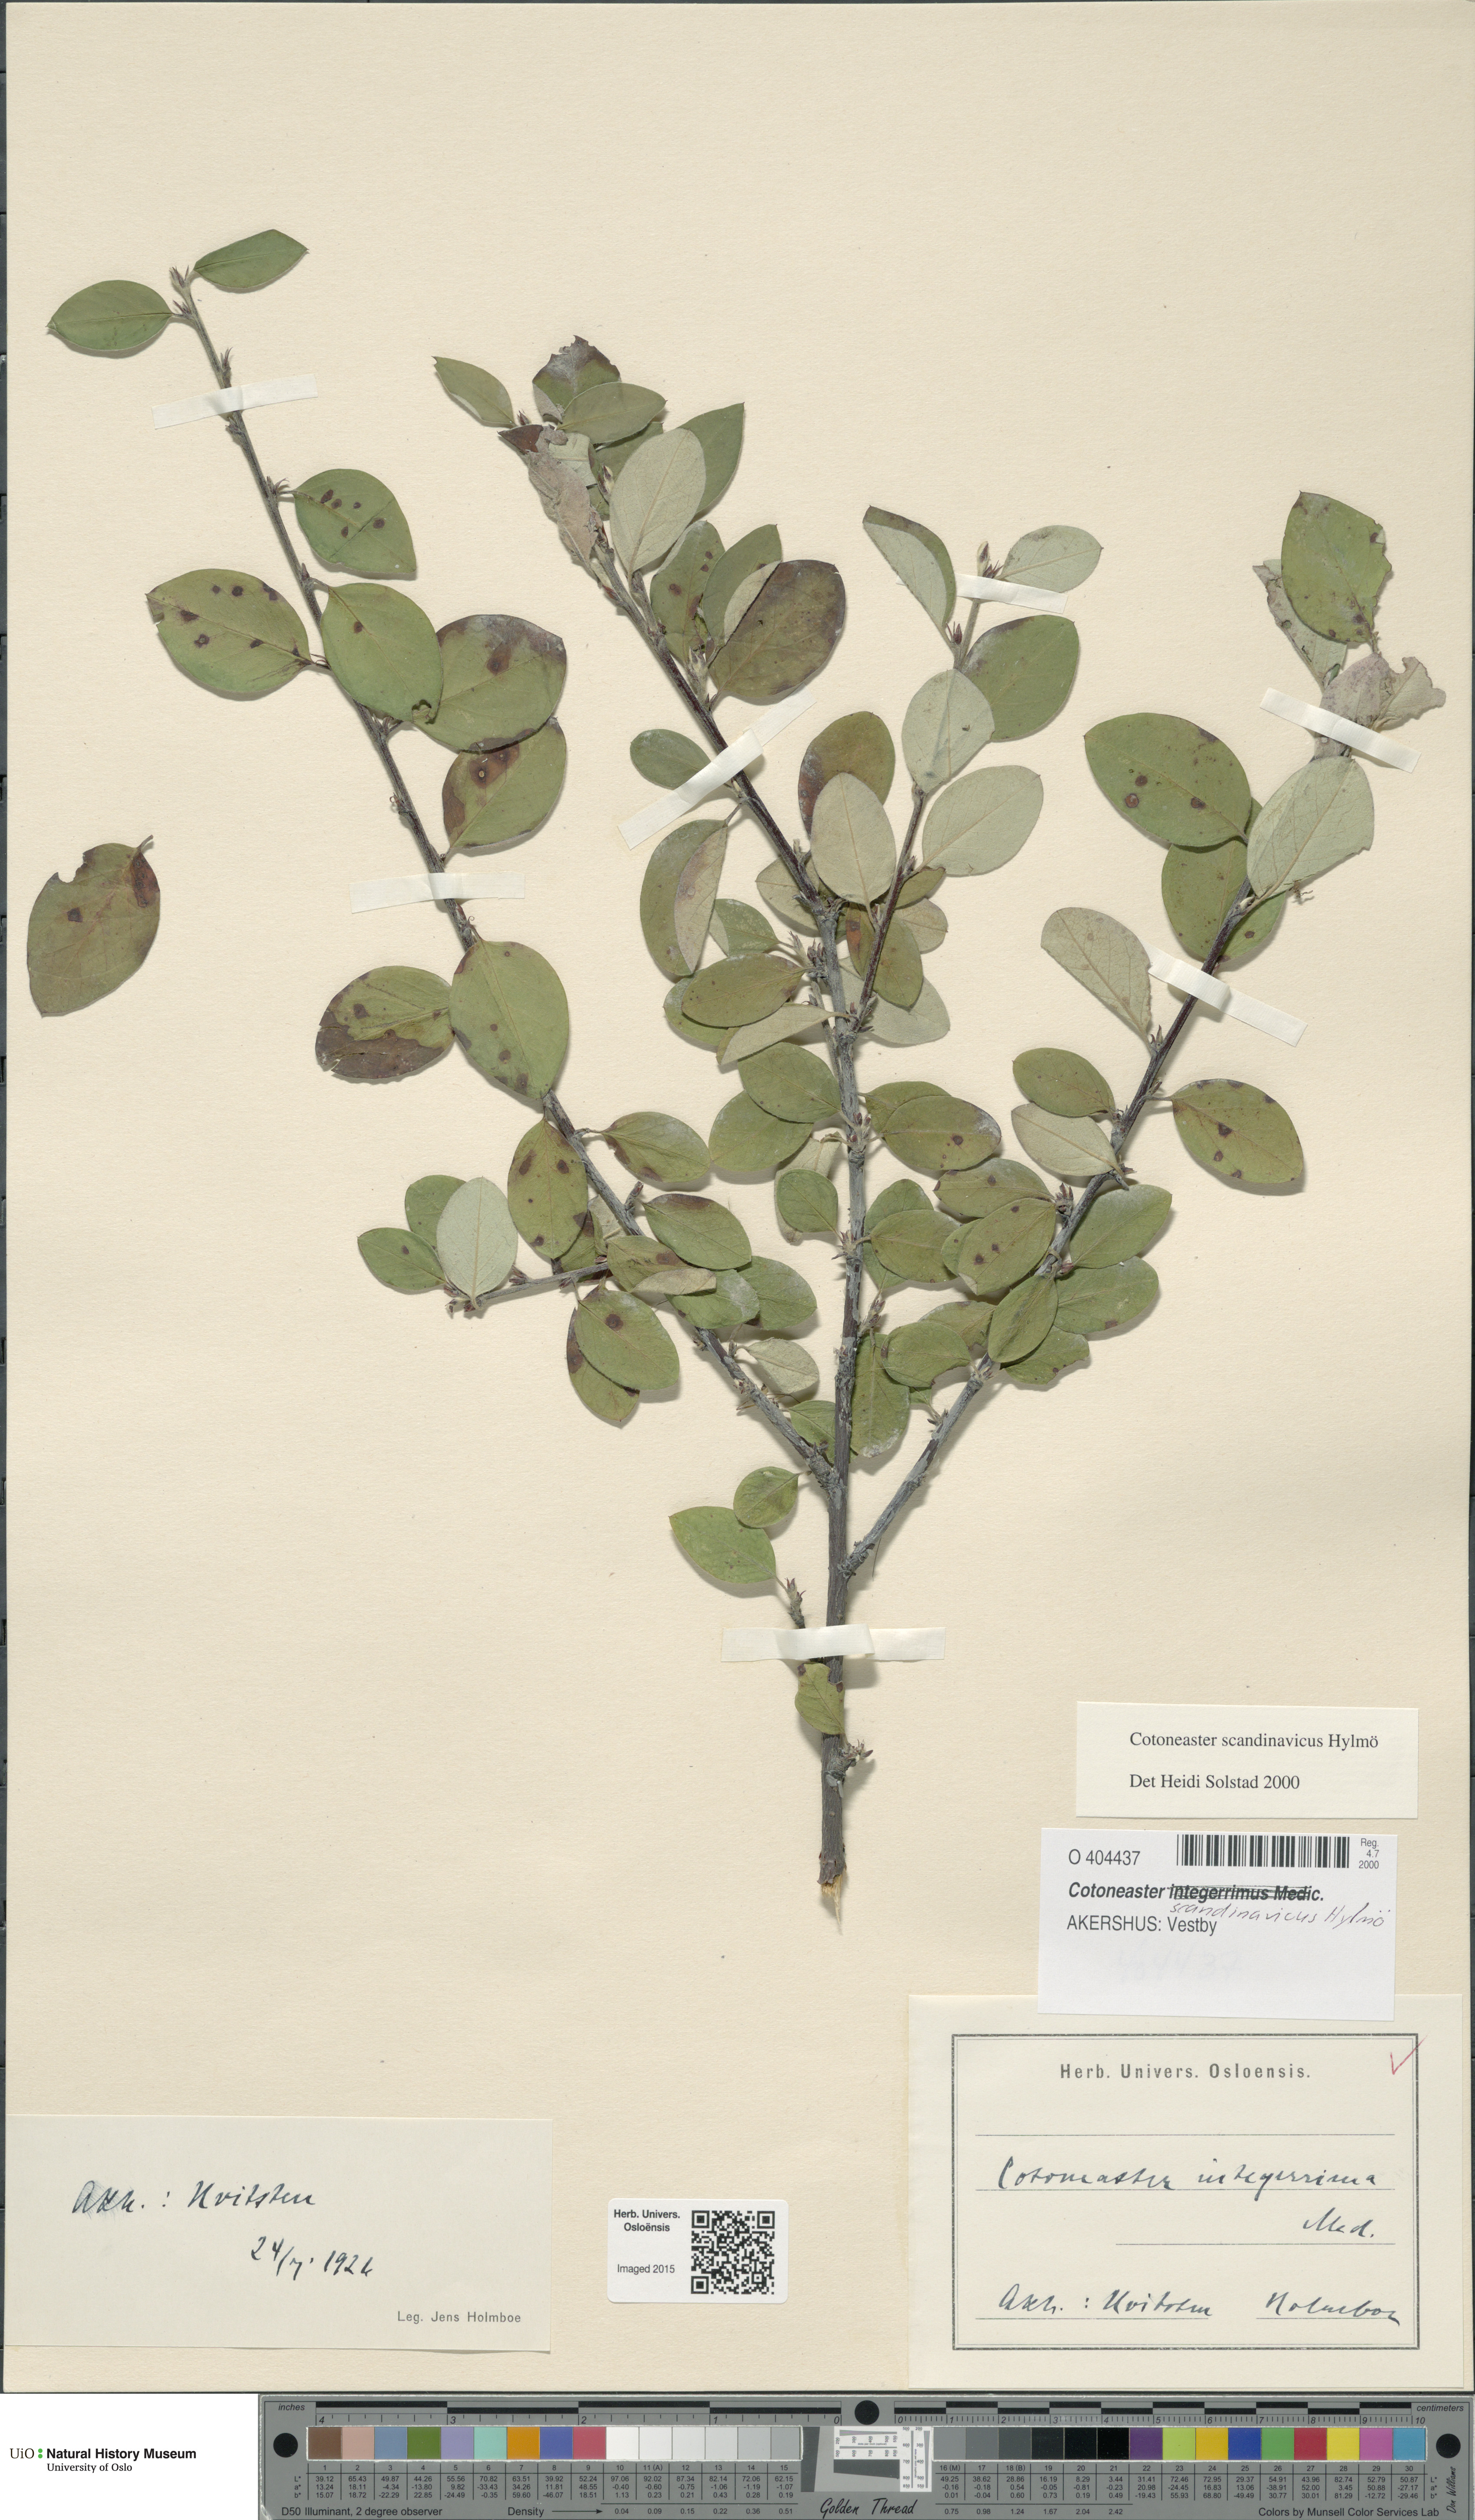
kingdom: Plantae
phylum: Tracheophyta
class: Magnoliopsida
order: Rosales
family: Rosaceae
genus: Cotoneaster
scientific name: Cotoneaster integerrimus
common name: Wild cotoneaster
